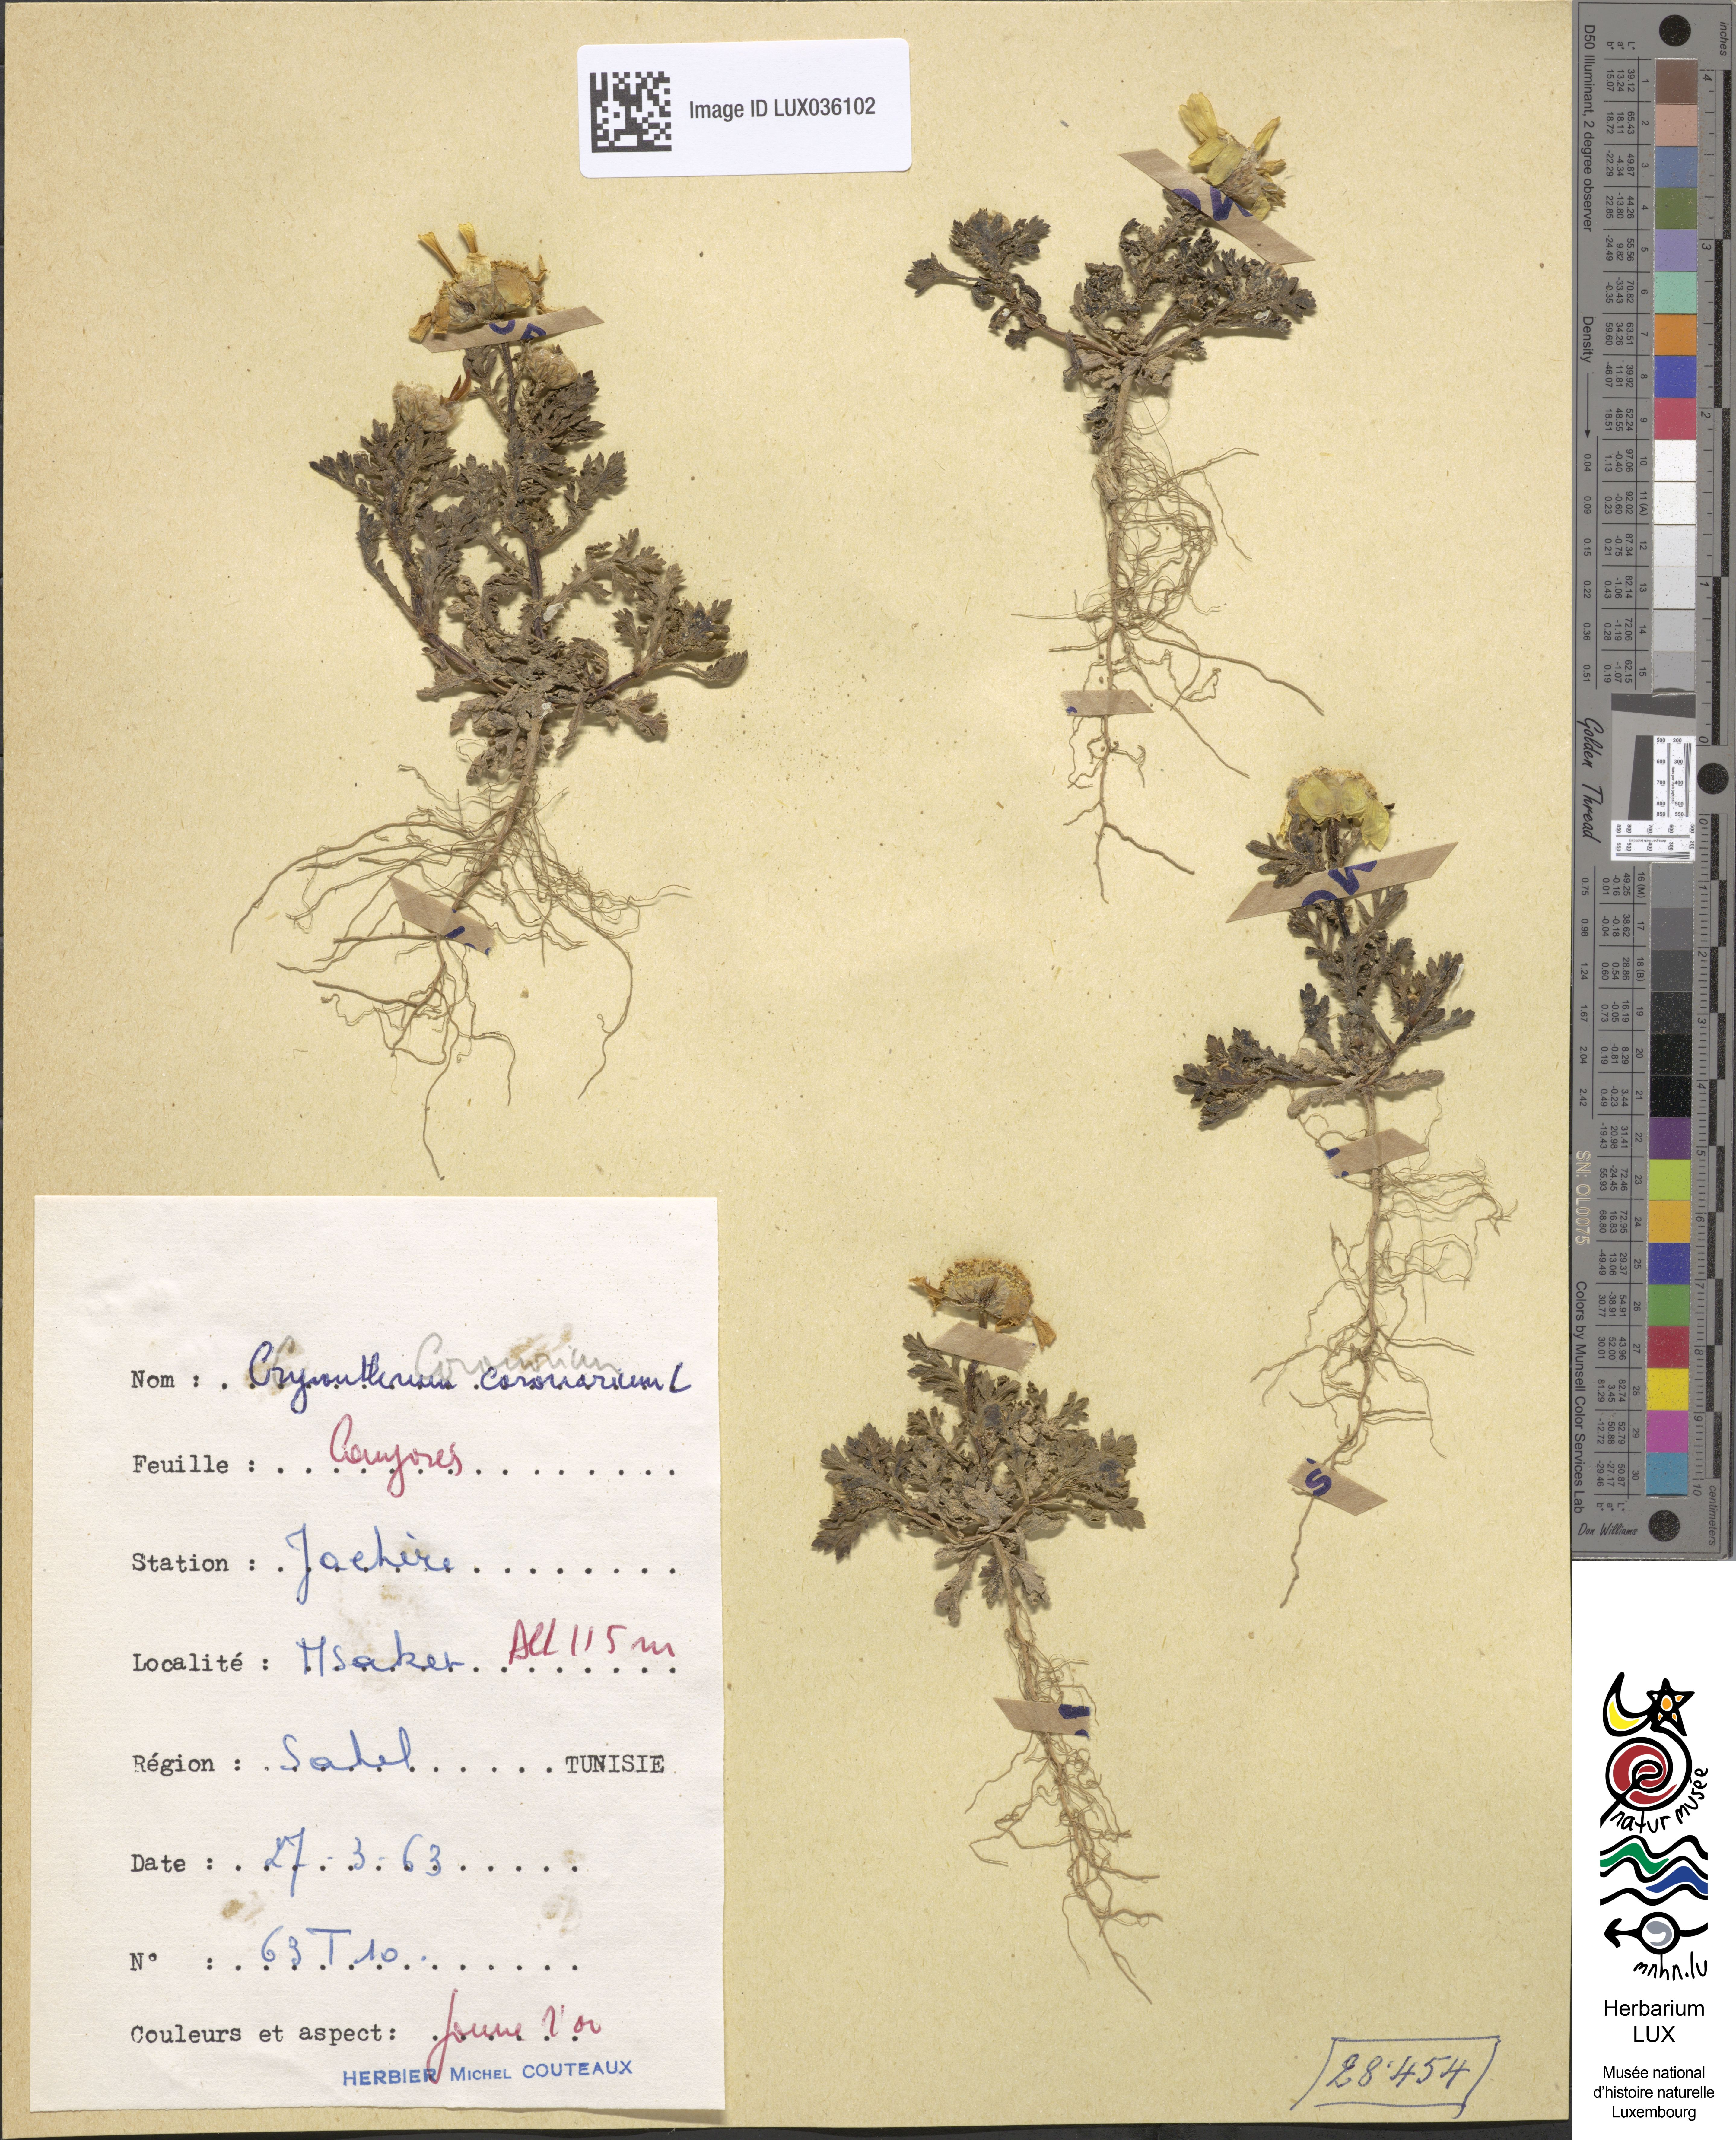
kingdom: Plantae
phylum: Tracheophyta
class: Magnoliopsida
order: Asterales
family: Asteraceae
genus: Glebionis
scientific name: Glebionis coronaria
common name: Crowndaisy
